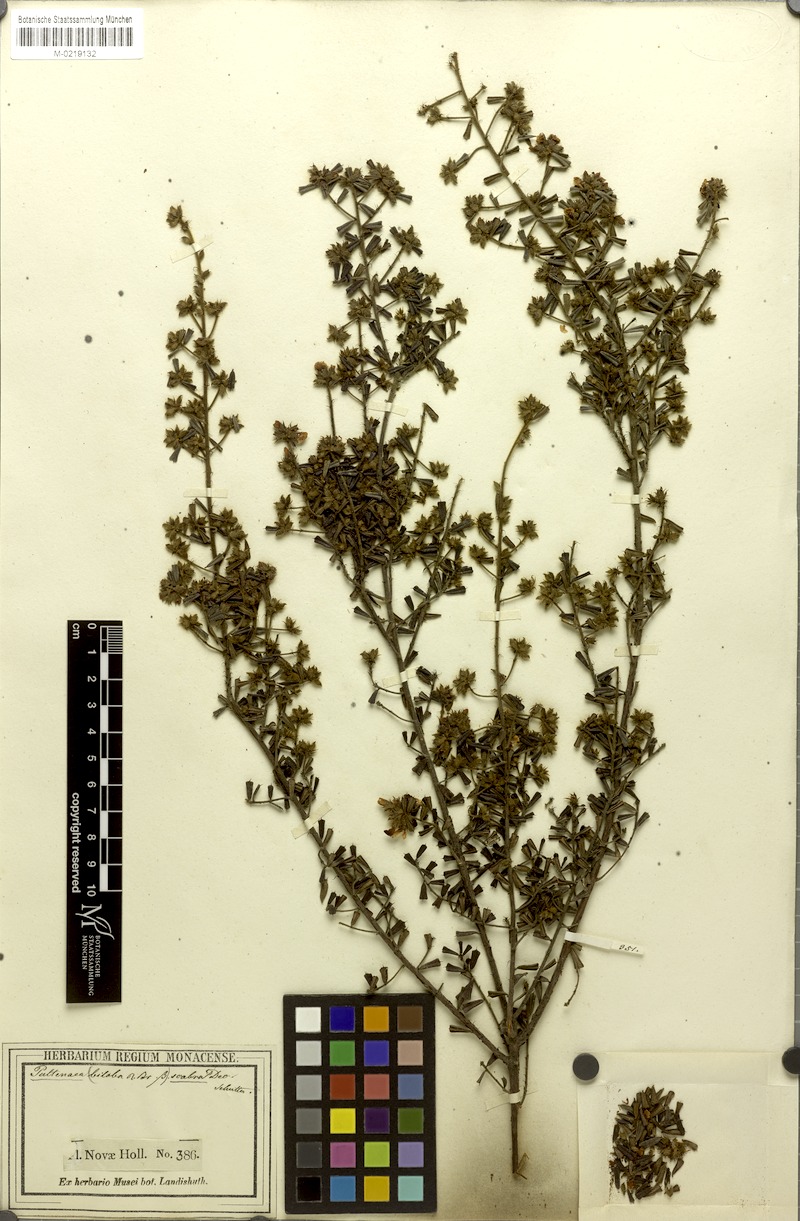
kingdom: Plantae
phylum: Tracheophyta
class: Magnoliopsida
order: Fabales
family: Fabaceae
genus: Pultenaea
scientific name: Pultenaea scabra
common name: Rough bush-pea
